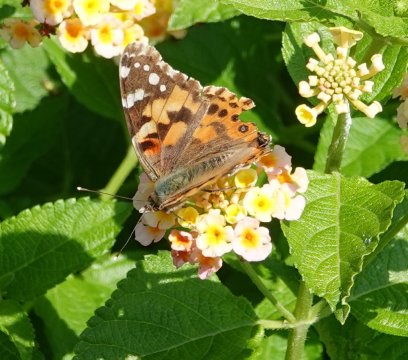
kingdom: Animalia
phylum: Arthropoda
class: Insecta
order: Lepidoptera
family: Nymphalidae
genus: Vanessa
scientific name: Vanessa cardui
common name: Painted Lady
